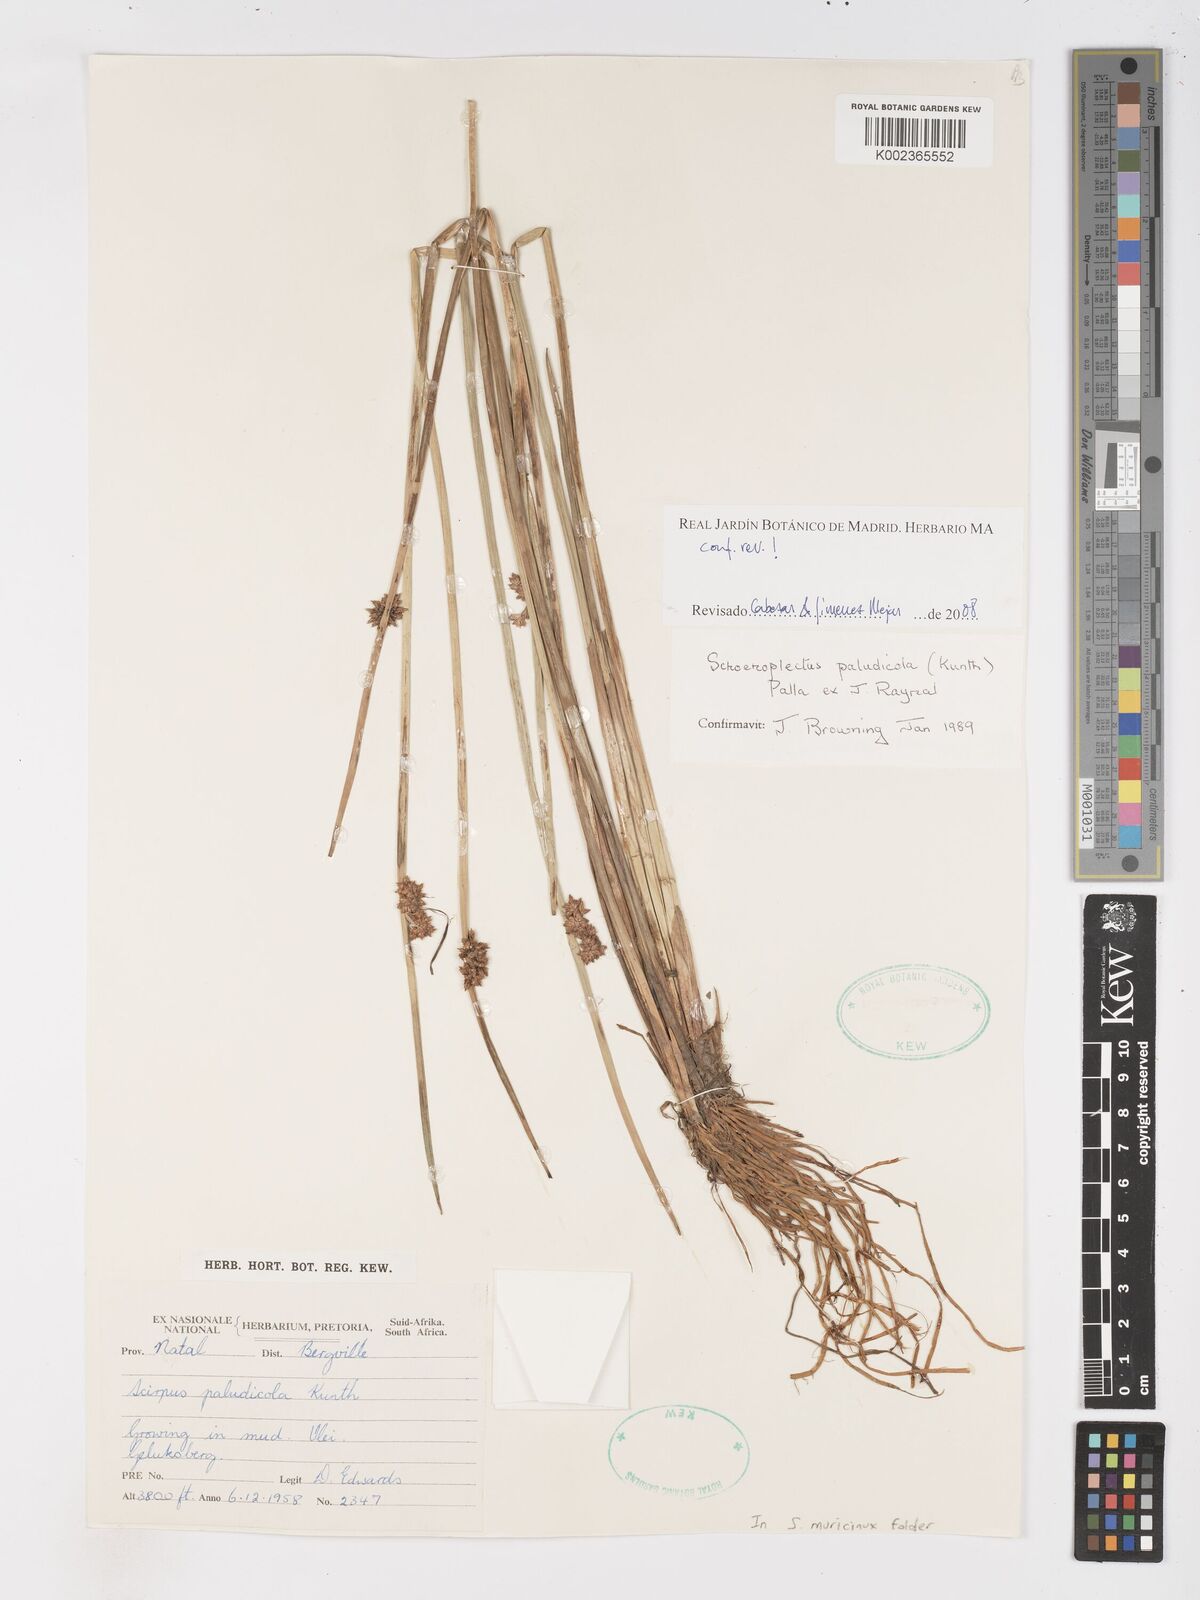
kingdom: Plantae
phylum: Tracheophyta
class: Liliopsida
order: Poales
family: Cyperaceae
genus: Schoenoplectiella
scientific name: Schoenoplectiella paludicola
